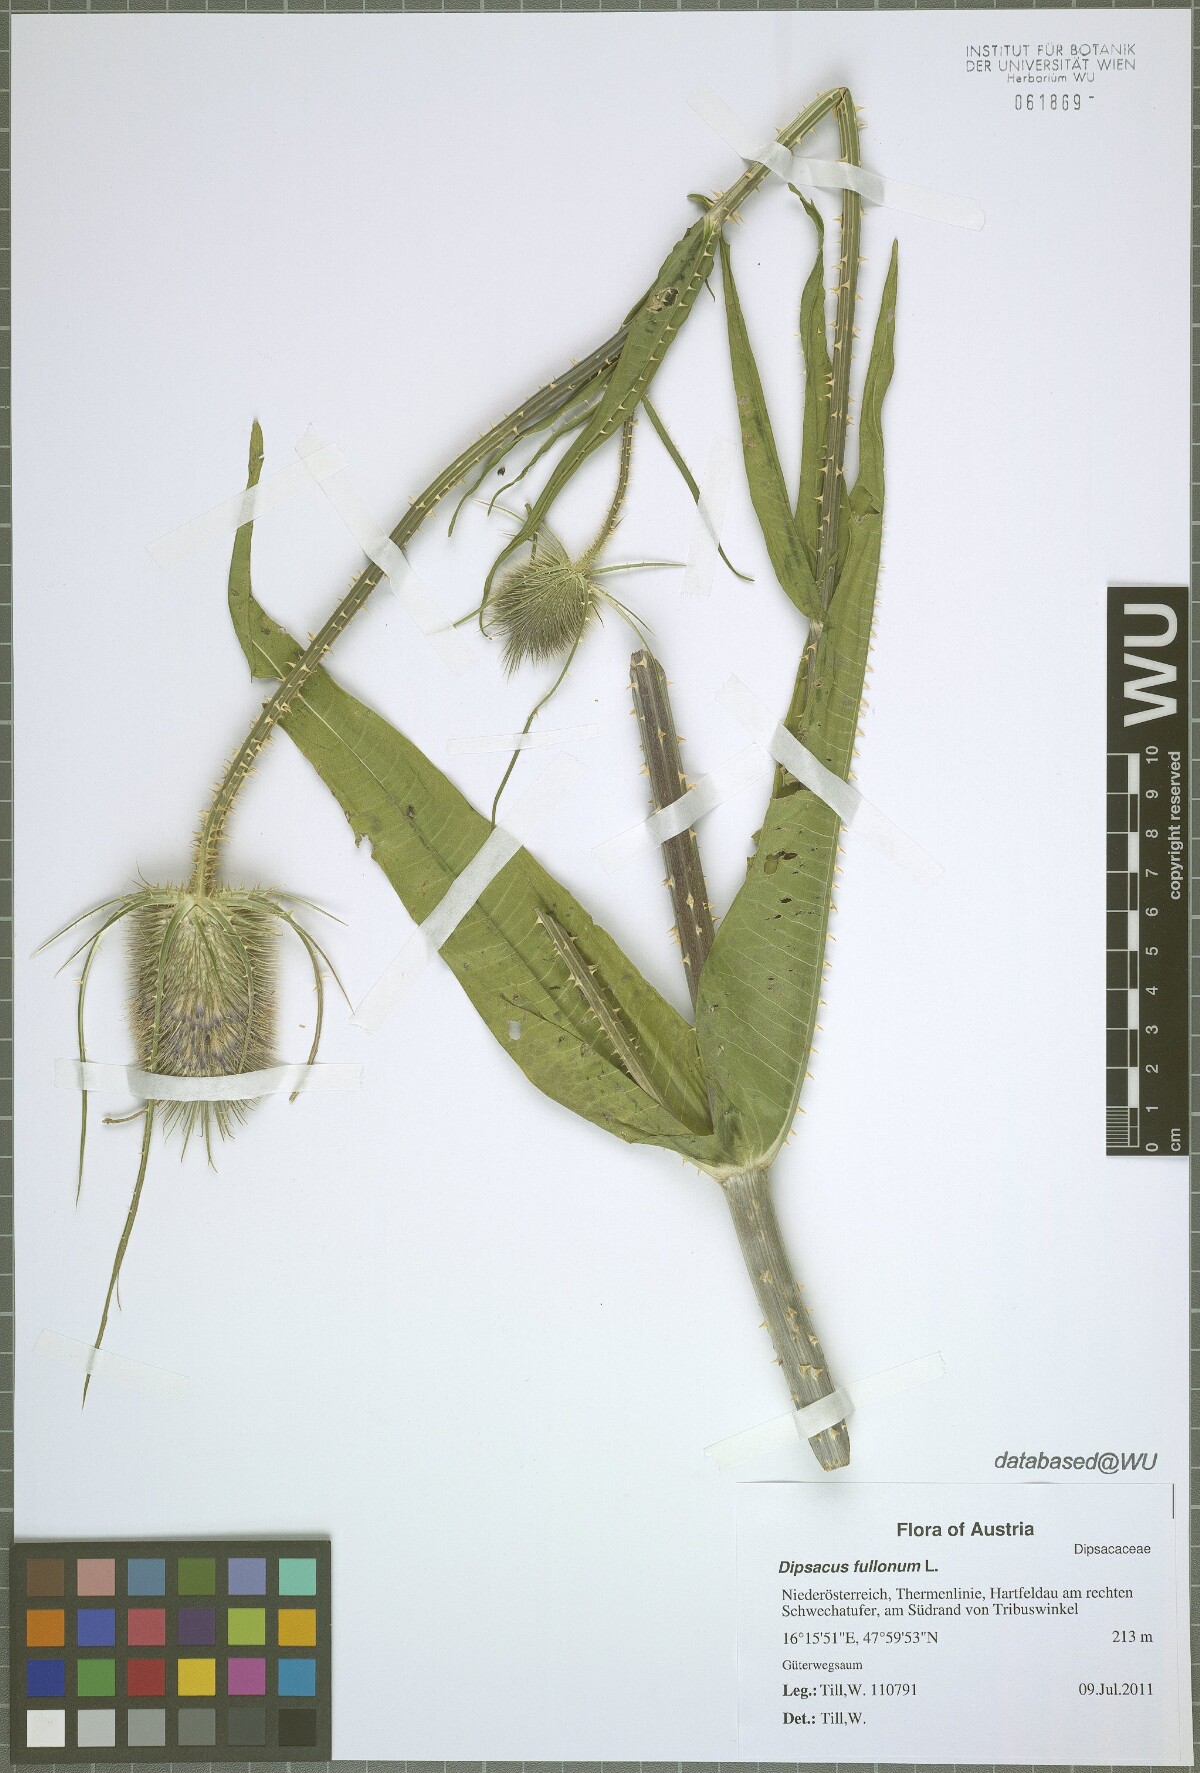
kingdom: Plantae
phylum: Tracheophyta
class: Magnoliopsida
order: Dipsacales
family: Caprifoliaceae
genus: Dipsacus
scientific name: Dipsacus fullonum
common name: Teasel
